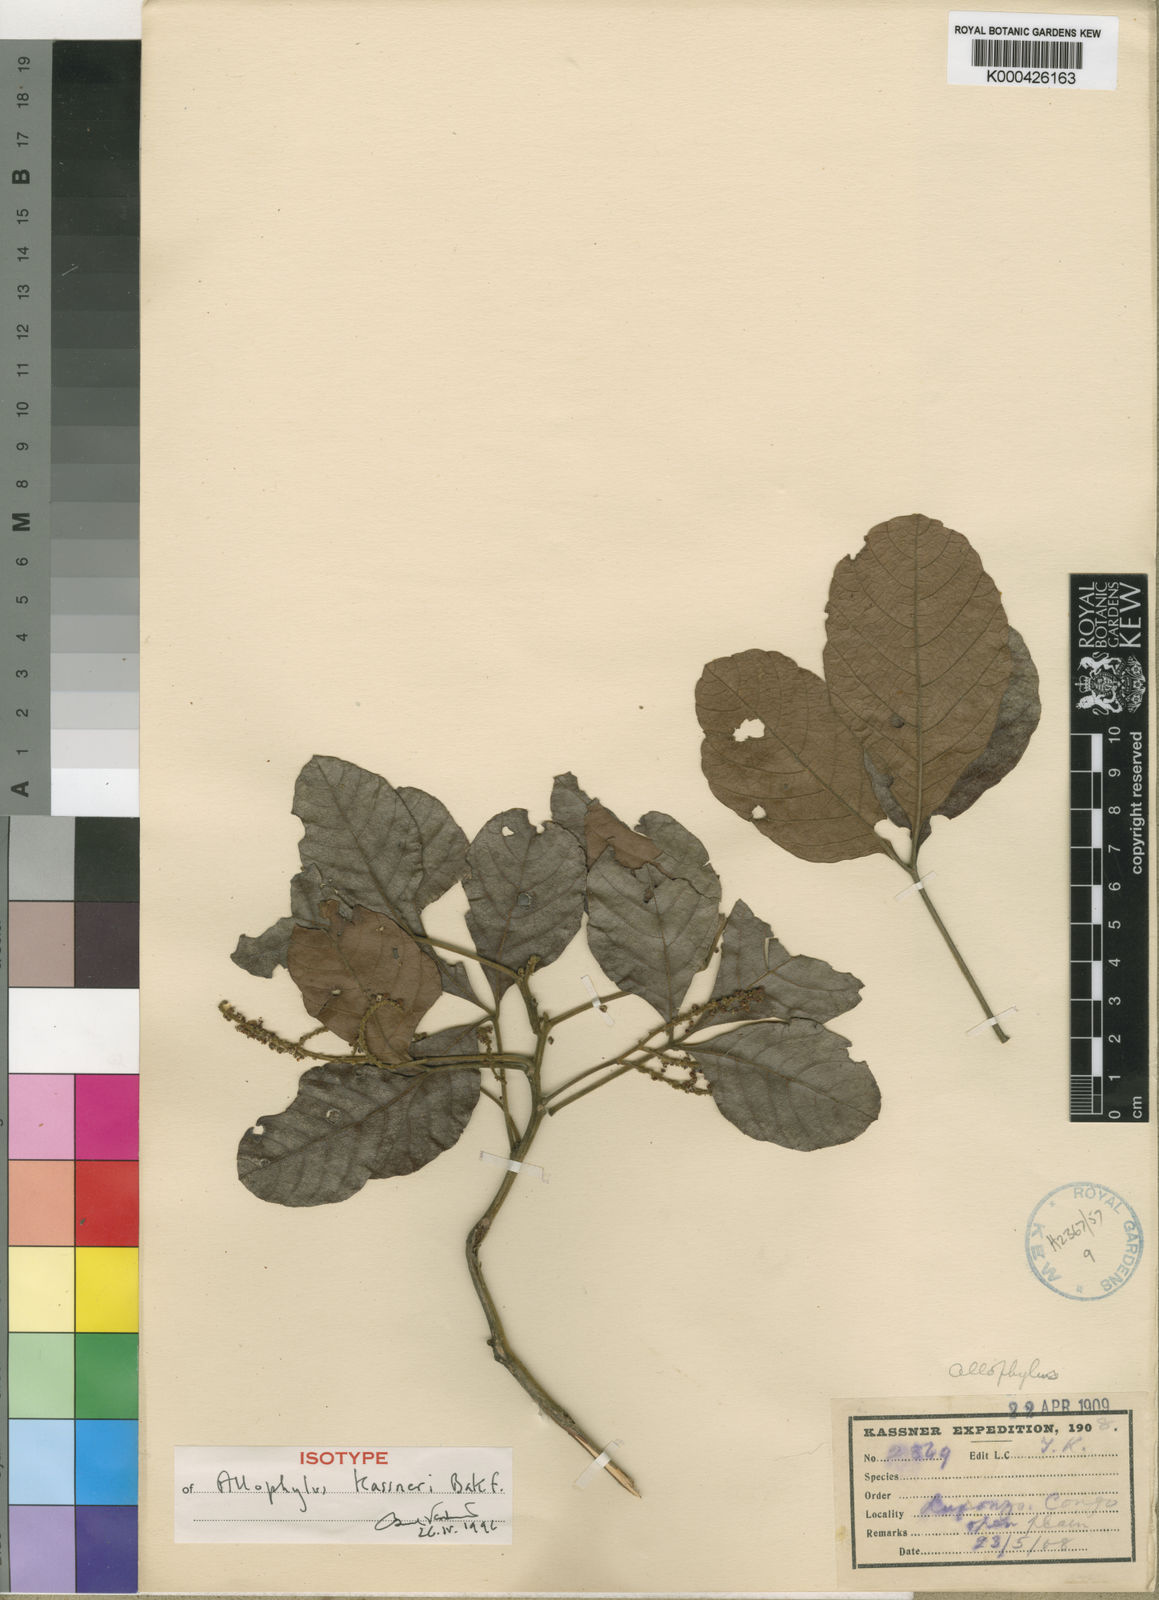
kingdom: Plantae
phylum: Tracheophyta
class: Magnoliopsida
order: Sapindales
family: Sapindaceae
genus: Allophylus
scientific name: Allophylus africanus
